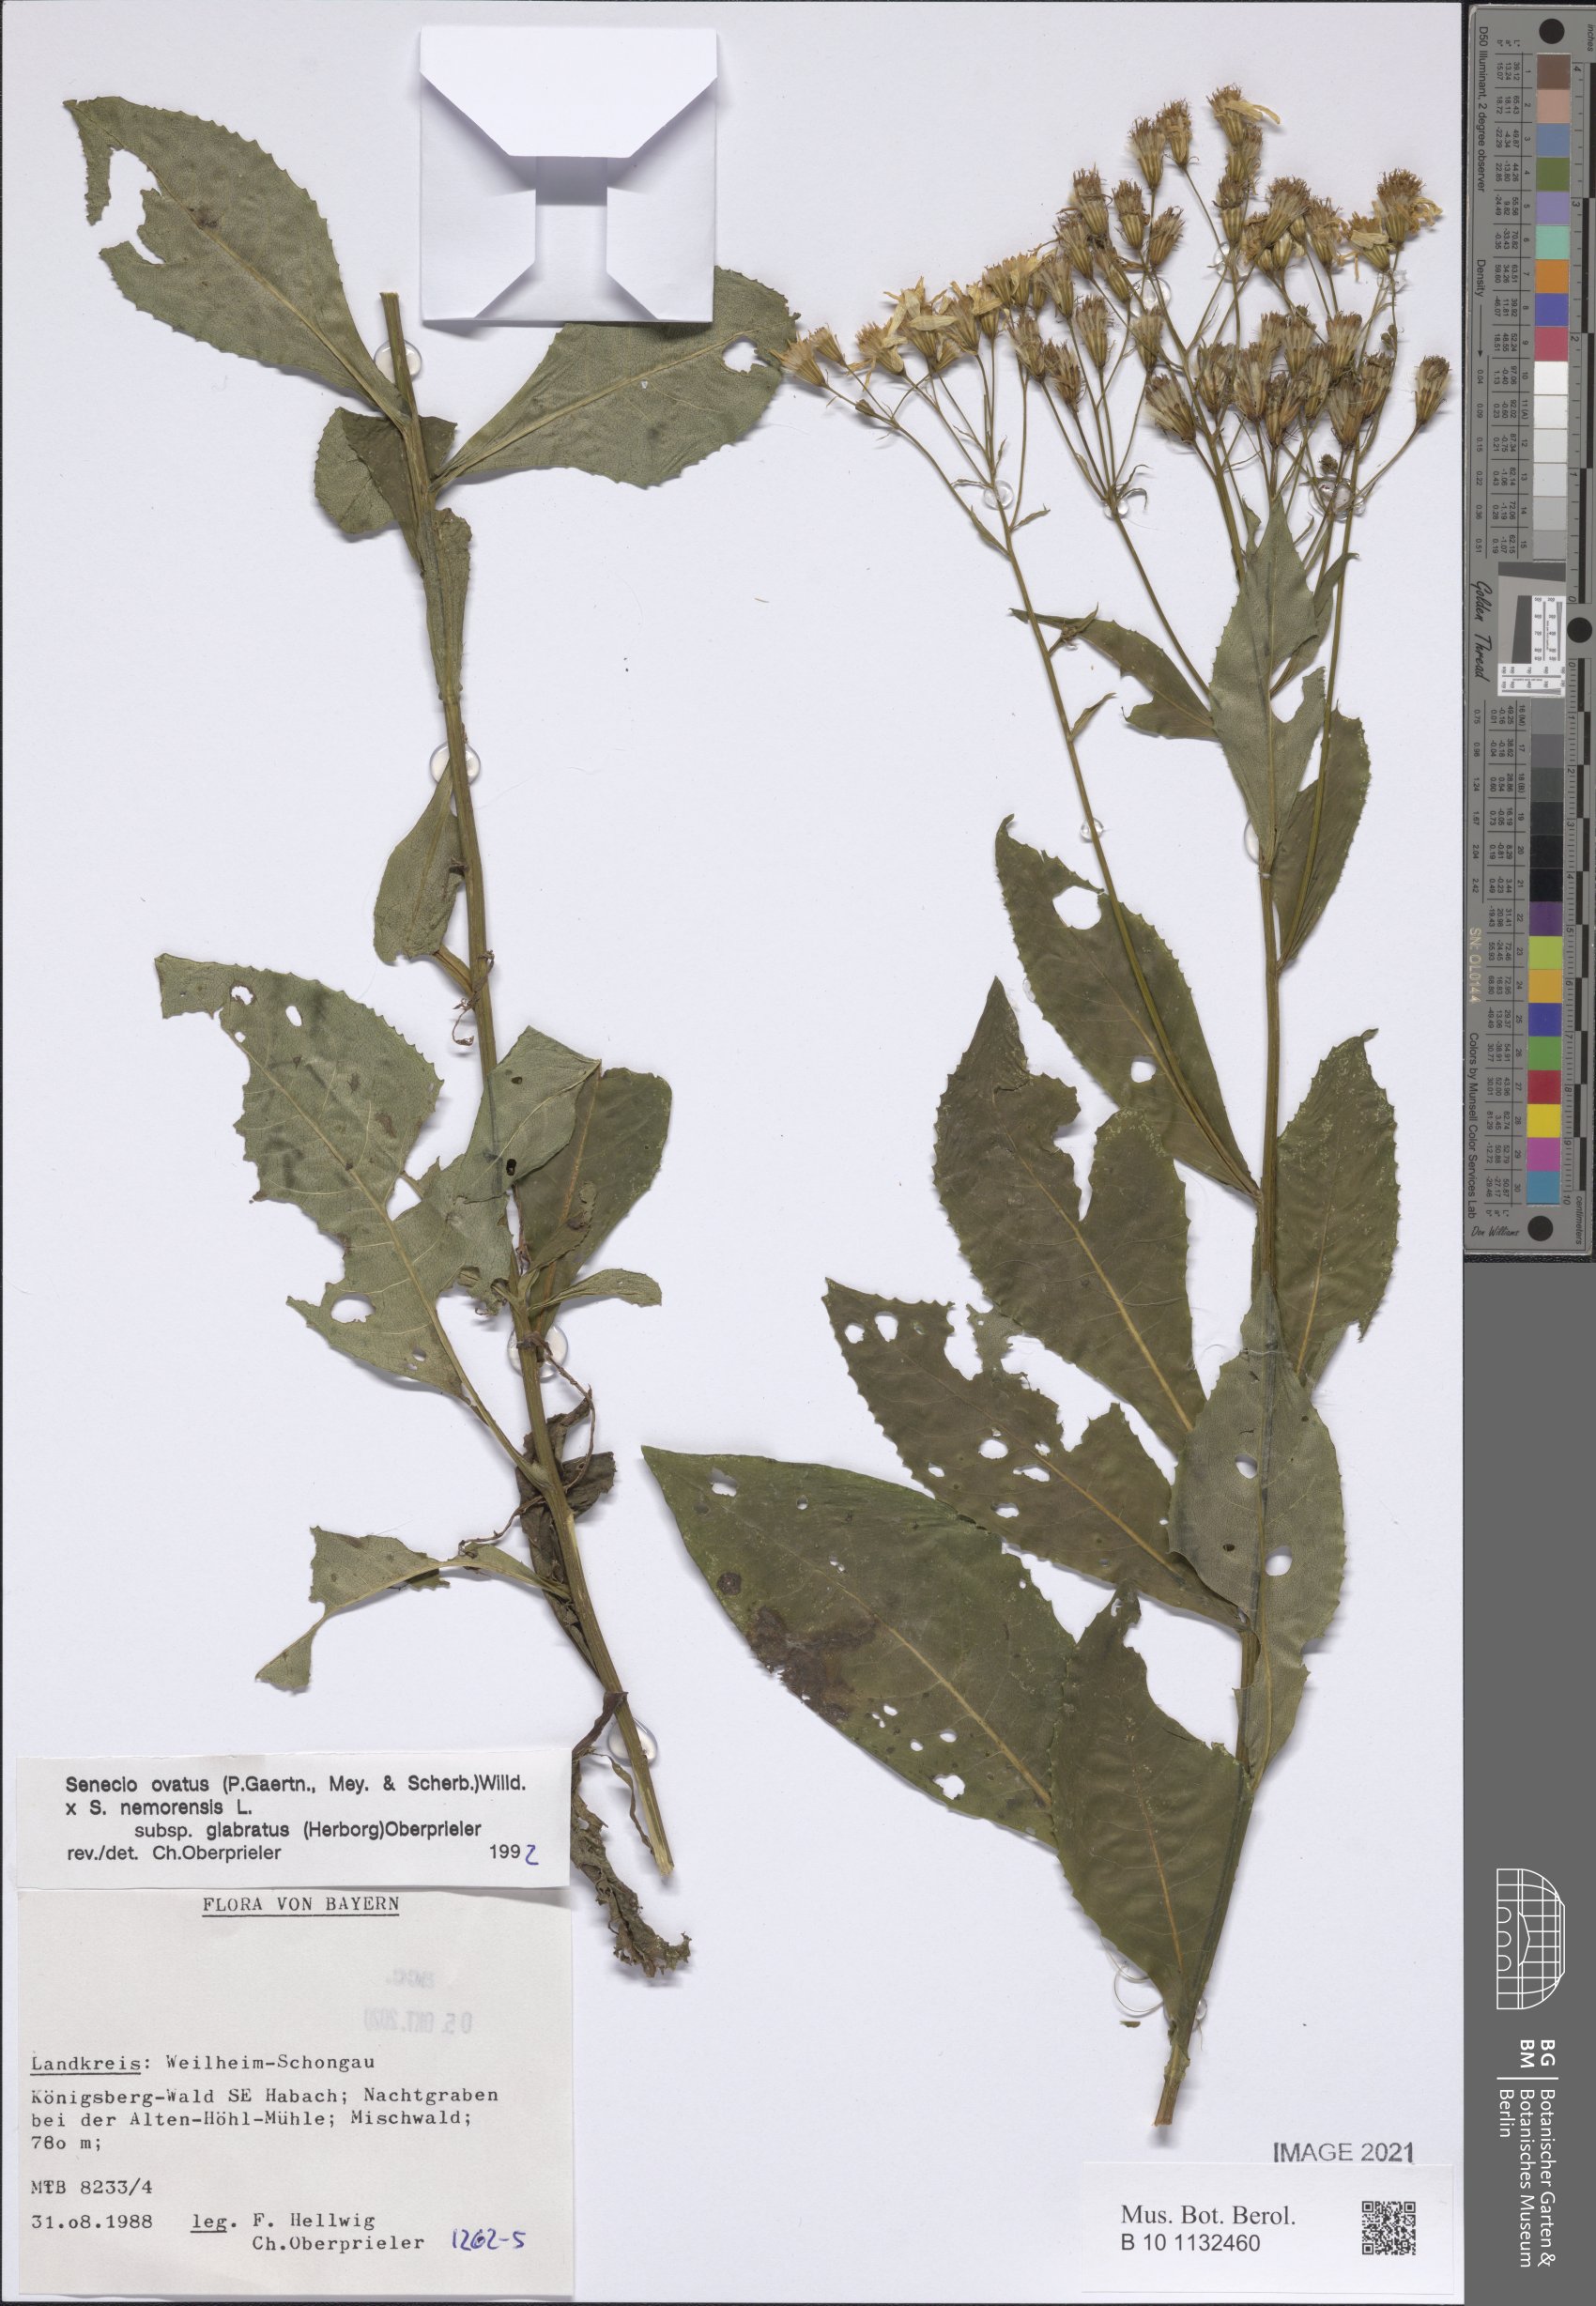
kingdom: Plantae
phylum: Tracheophyta
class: Magnoliopsida
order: Asterales
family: Asteraceae
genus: Senecio
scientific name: Senecio ovatus
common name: Wood ragwort
